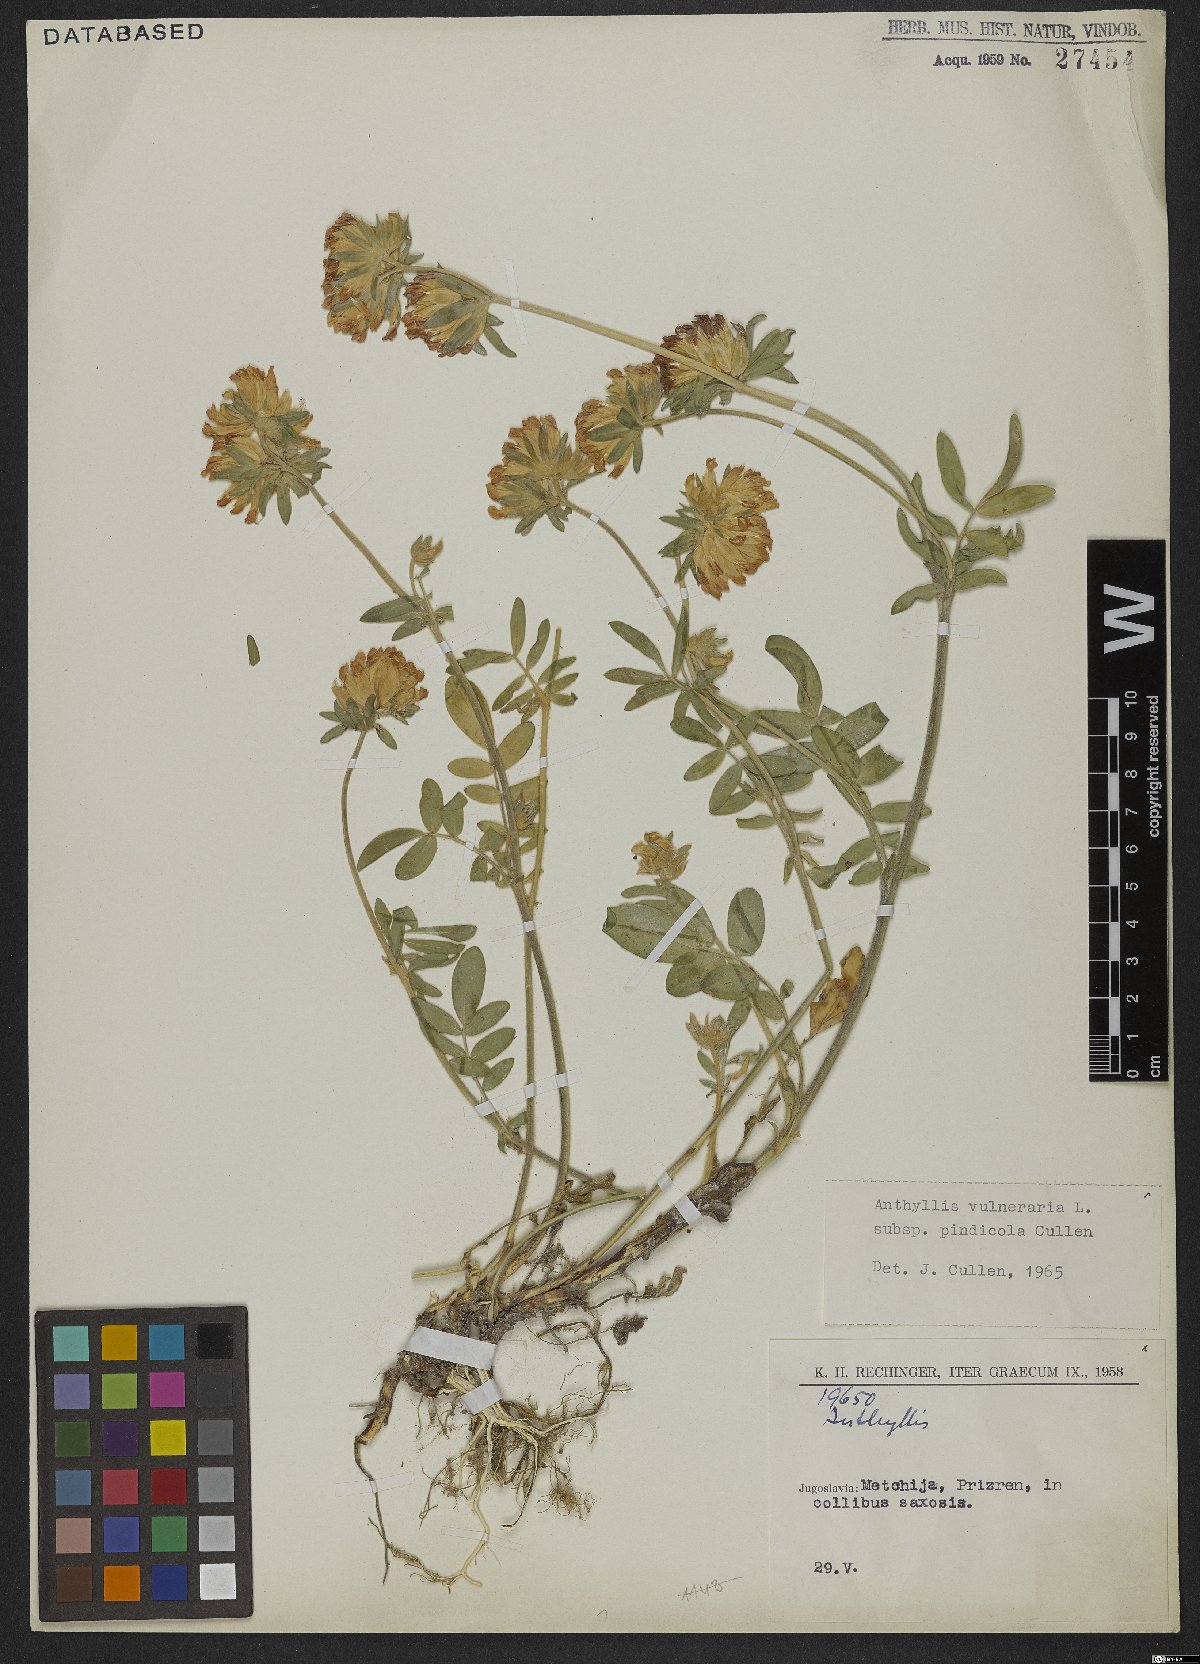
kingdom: Plantae
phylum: Tracheophyta
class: Magnoliopsida
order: Fabales
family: Fabaceae
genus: Anthyllis
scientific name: Anthyllis vulneraria
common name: Kidney vetch
